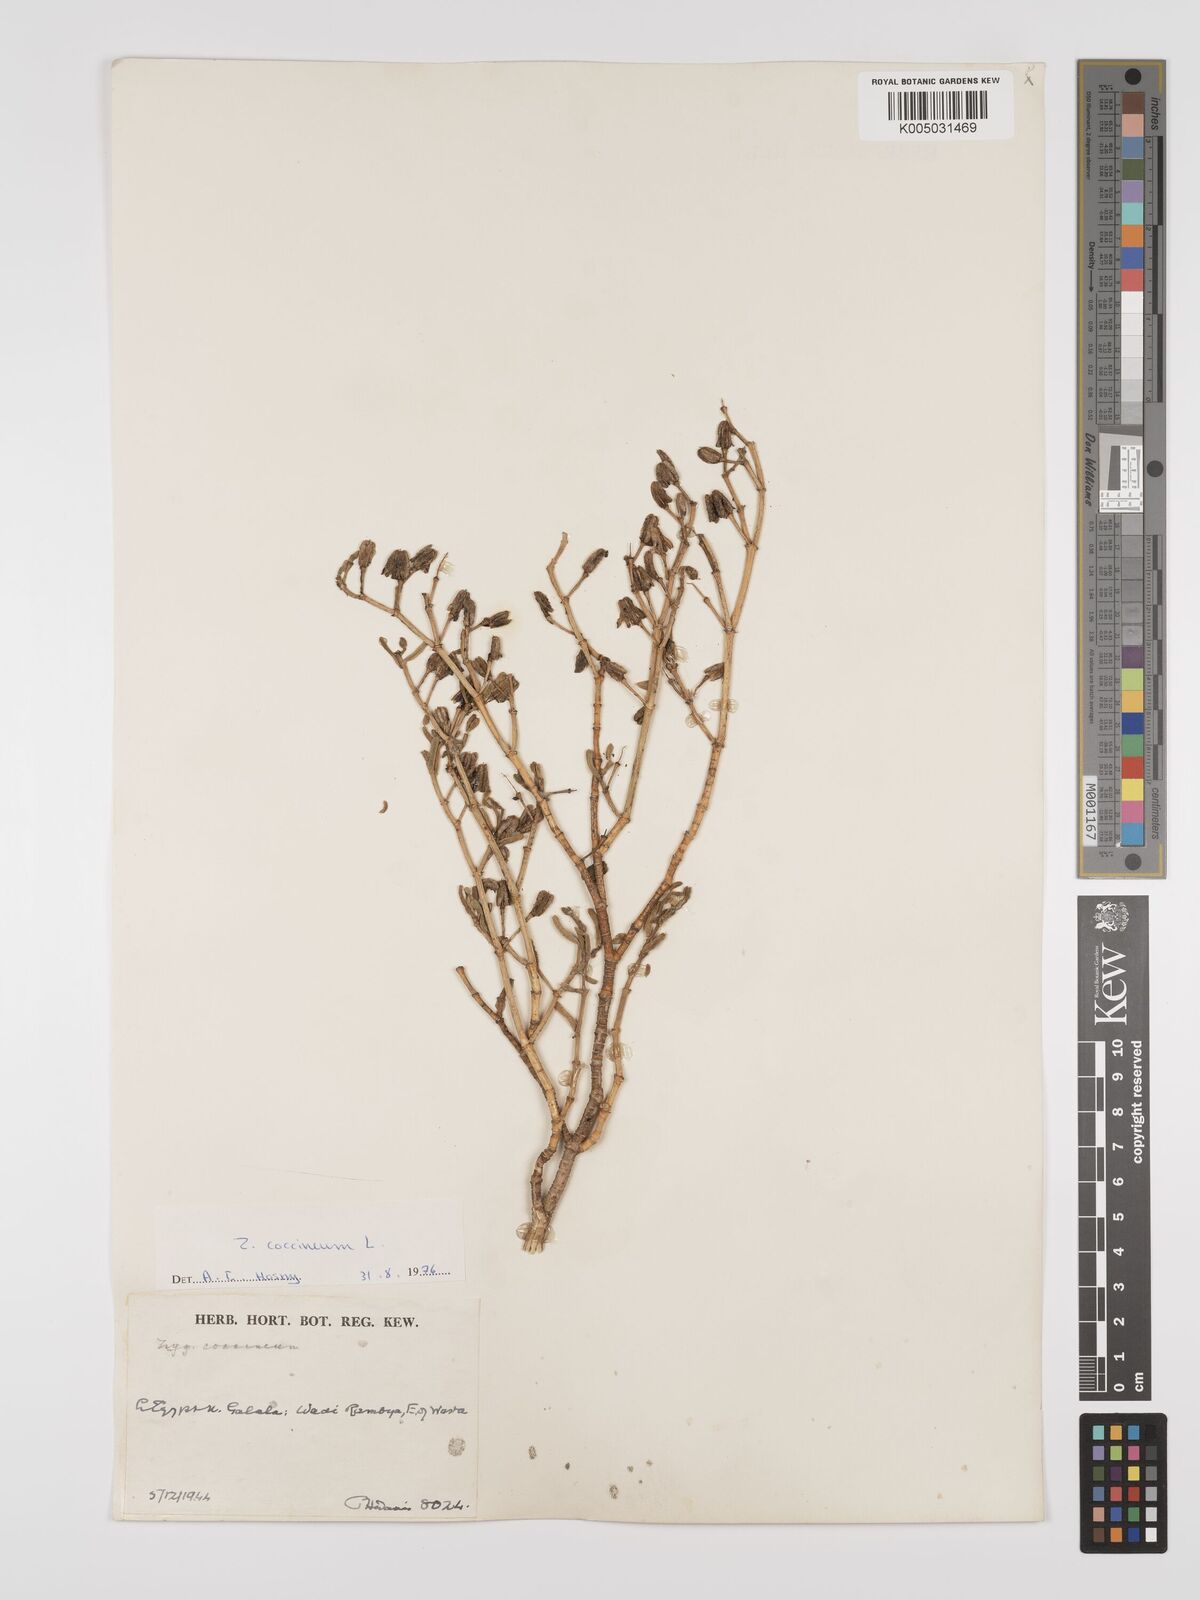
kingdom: Plantae
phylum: Tracheophyta
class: Magnoliopsida
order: Zygophyllales
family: Zygophyllaceae
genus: Tetraena
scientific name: Tetraena coccinea
